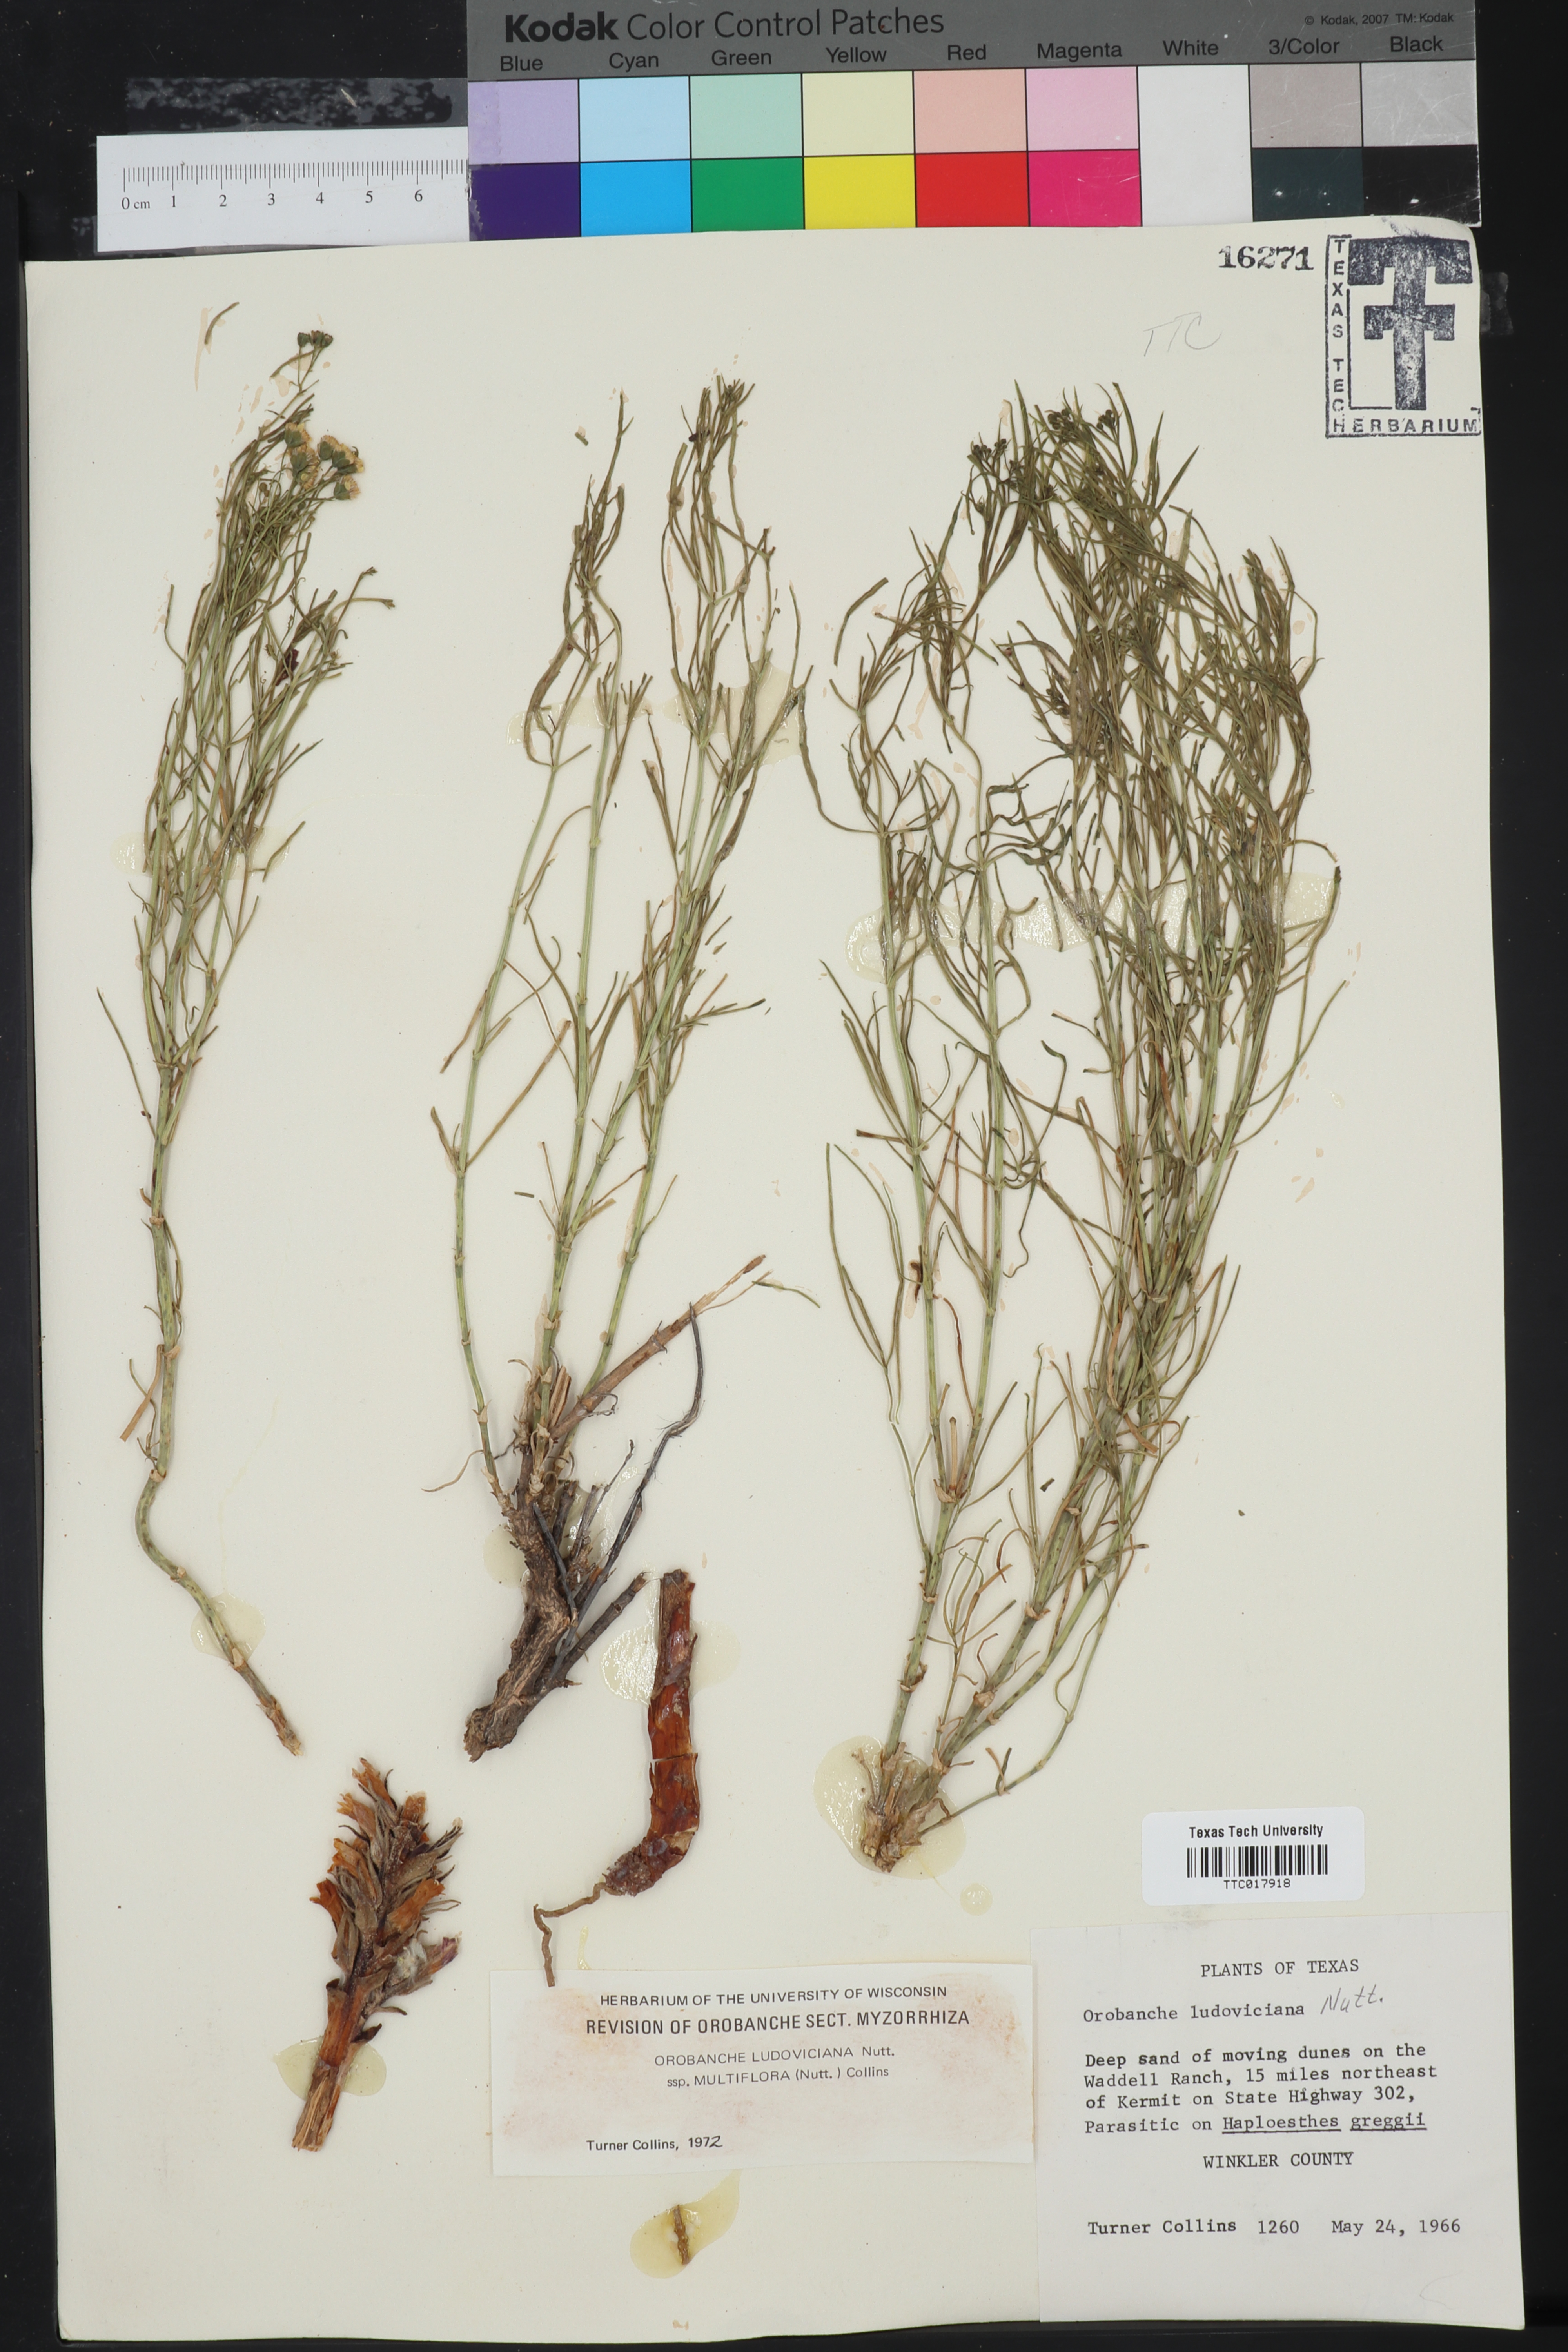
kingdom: Plantae
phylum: Tracheophyta
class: Magnoliopsida
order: Lamiales
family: Orobanchaceae
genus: Aphyllon
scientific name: Aphyllon multiflorum
